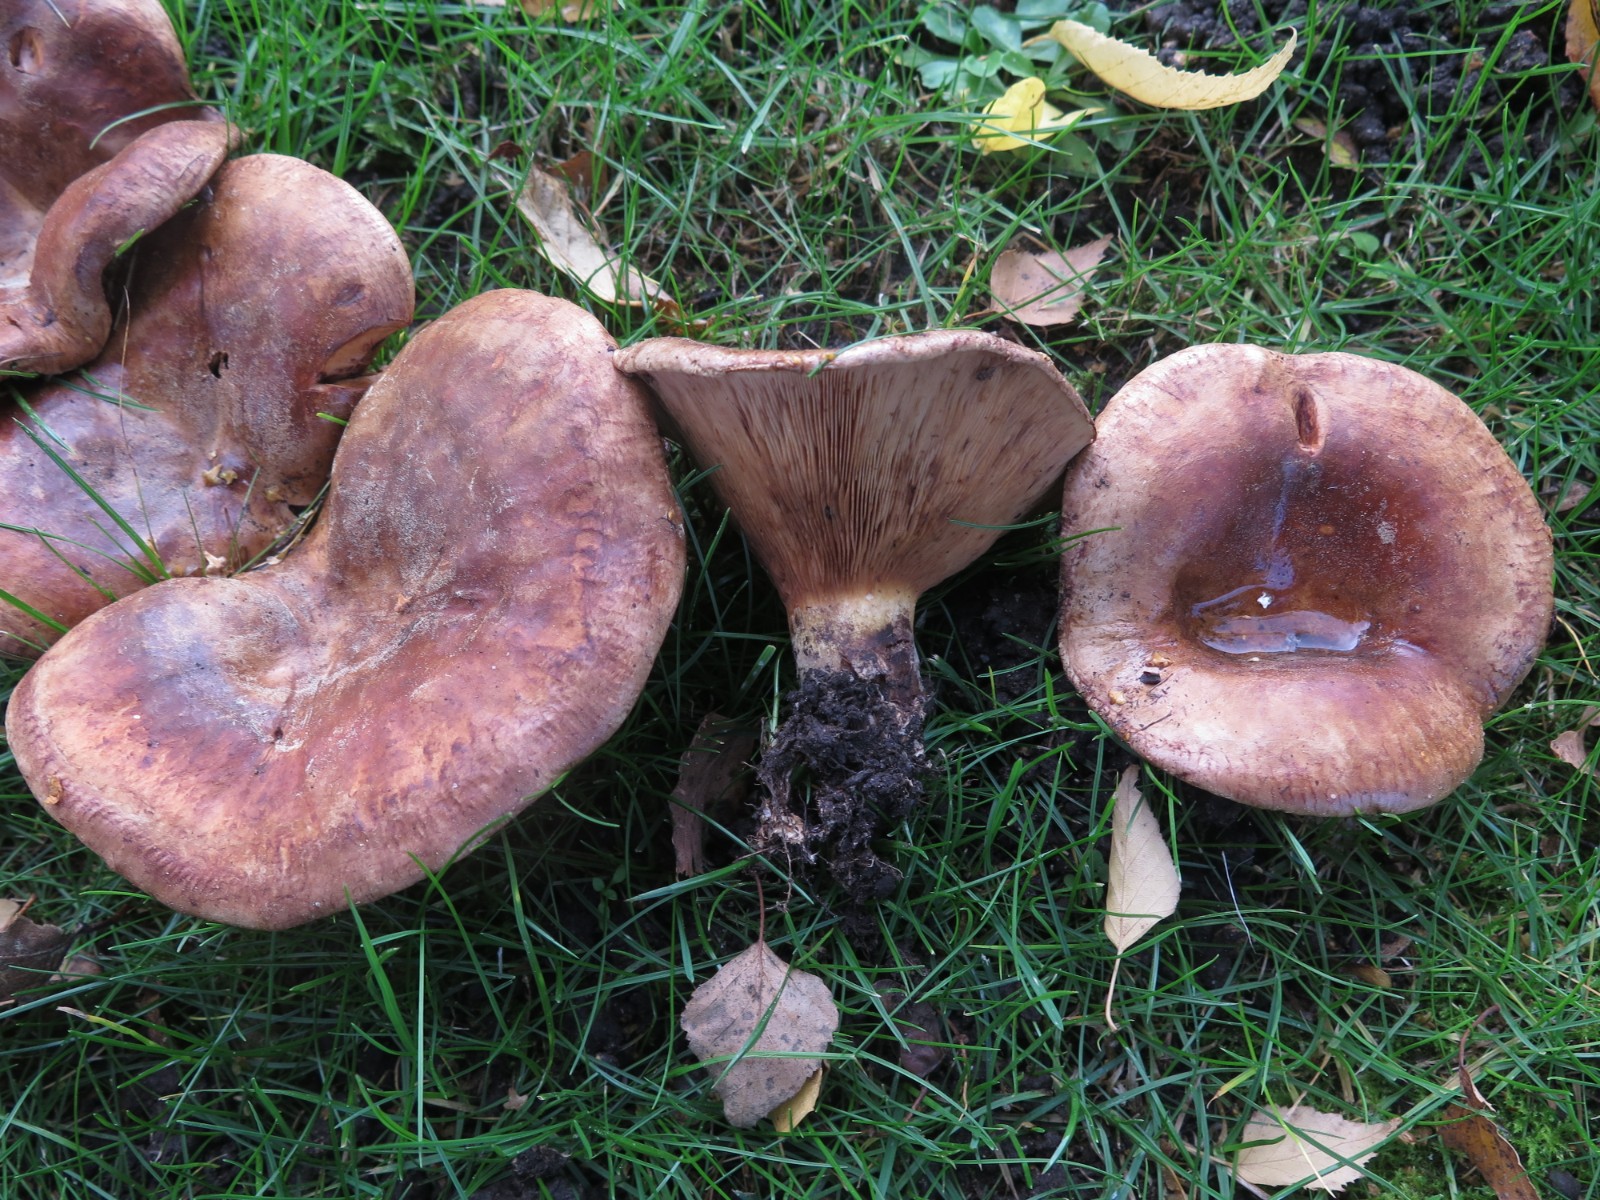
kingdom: Fungi
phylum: Basidiomycota
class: Agaricomycetes
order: Boletales
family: Paxillaceae
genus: Paxillus
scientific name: Paxillus involutus
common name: almindelig netbladhat
